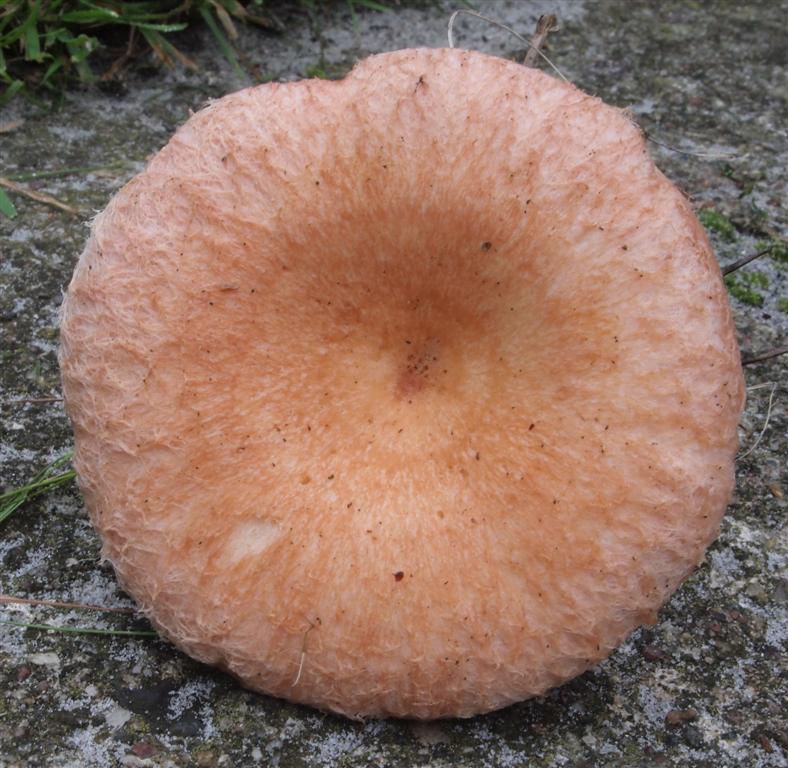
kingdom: Fungi
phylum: Basidiomycota
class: Agaricomycetes
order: Russulales
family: Russulaceae
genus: Lactarius
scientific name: Lactarius torminosus
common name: skægget mælkehat
